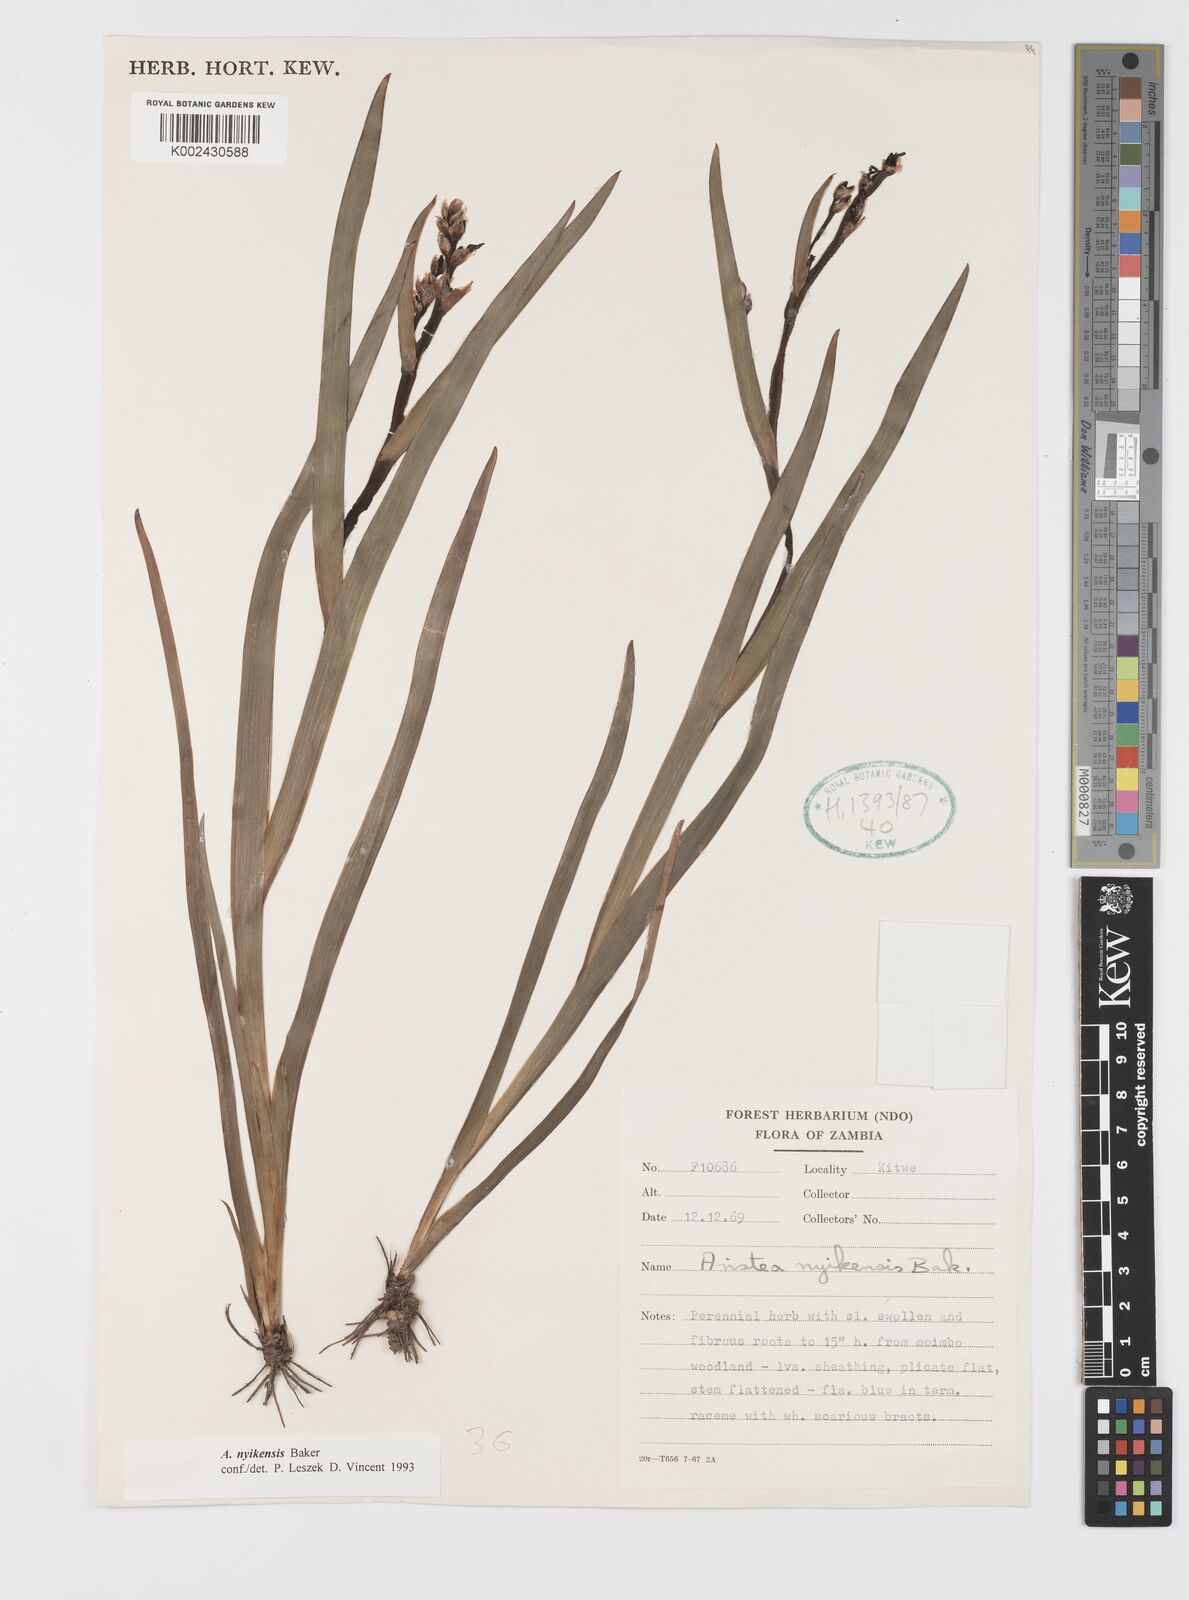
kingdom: Plantae
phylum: Tracheophyta
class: Liliopsida
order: Asparagales
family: Iridaceae
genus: Aristea
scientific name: Aristea nyikensis
